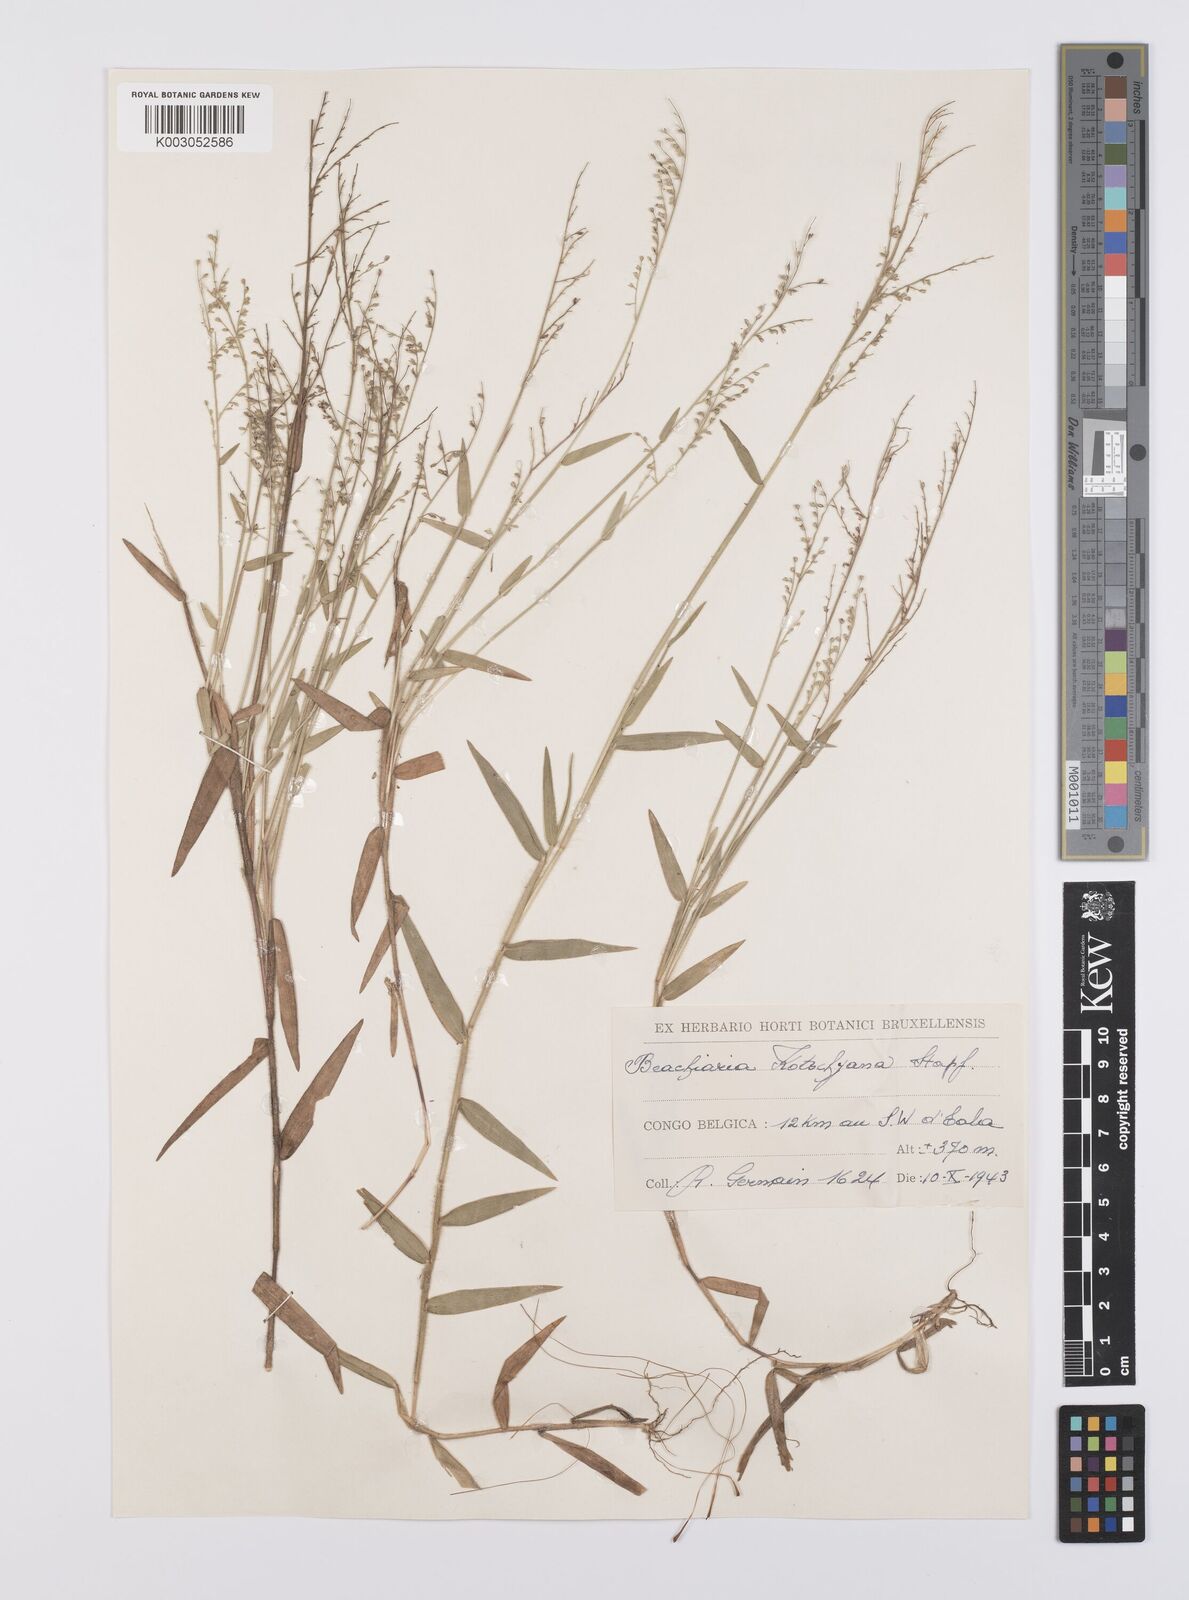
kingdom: Plantae
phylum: Tracheophyta
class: Liliopsida
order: Poales
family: Poaceae
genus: Urochloa
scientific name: Urochloa comata
